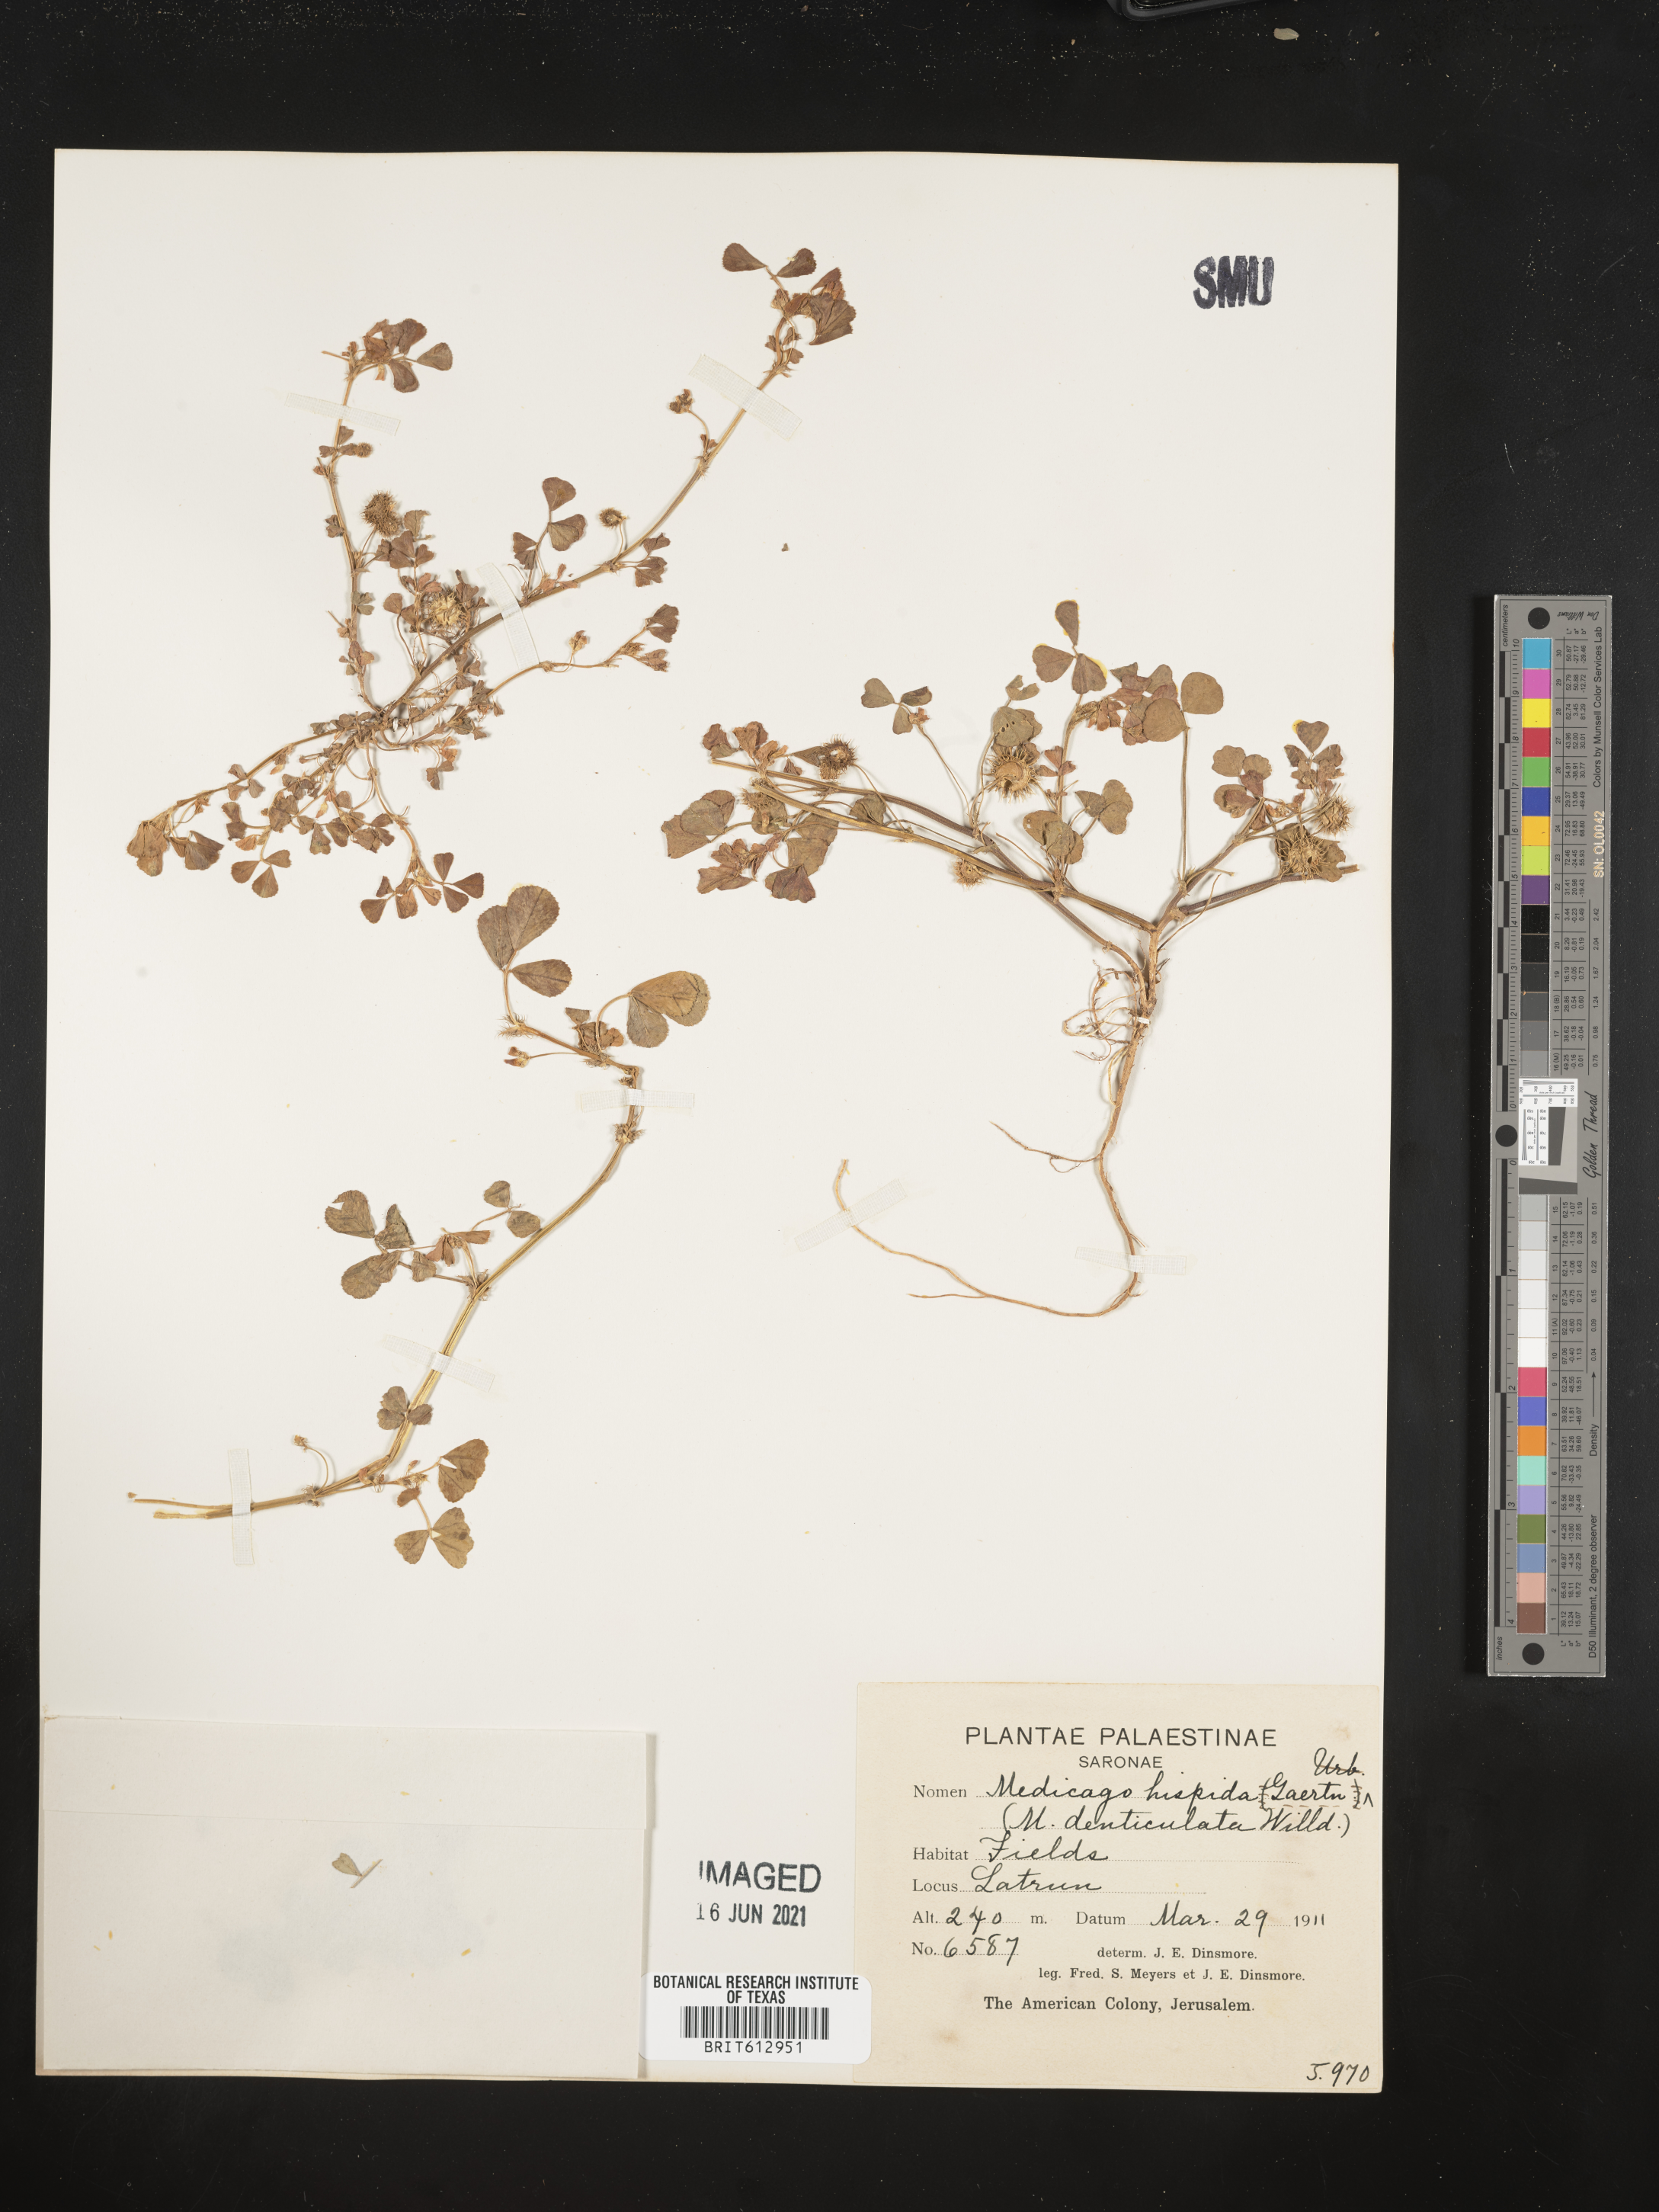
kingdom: Plantae
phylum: Tracheophyta
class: Magnoliopsida
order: Fabales
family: Fabaceae
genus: Medicago
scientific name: Medicago polymorpha
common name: Burclover
